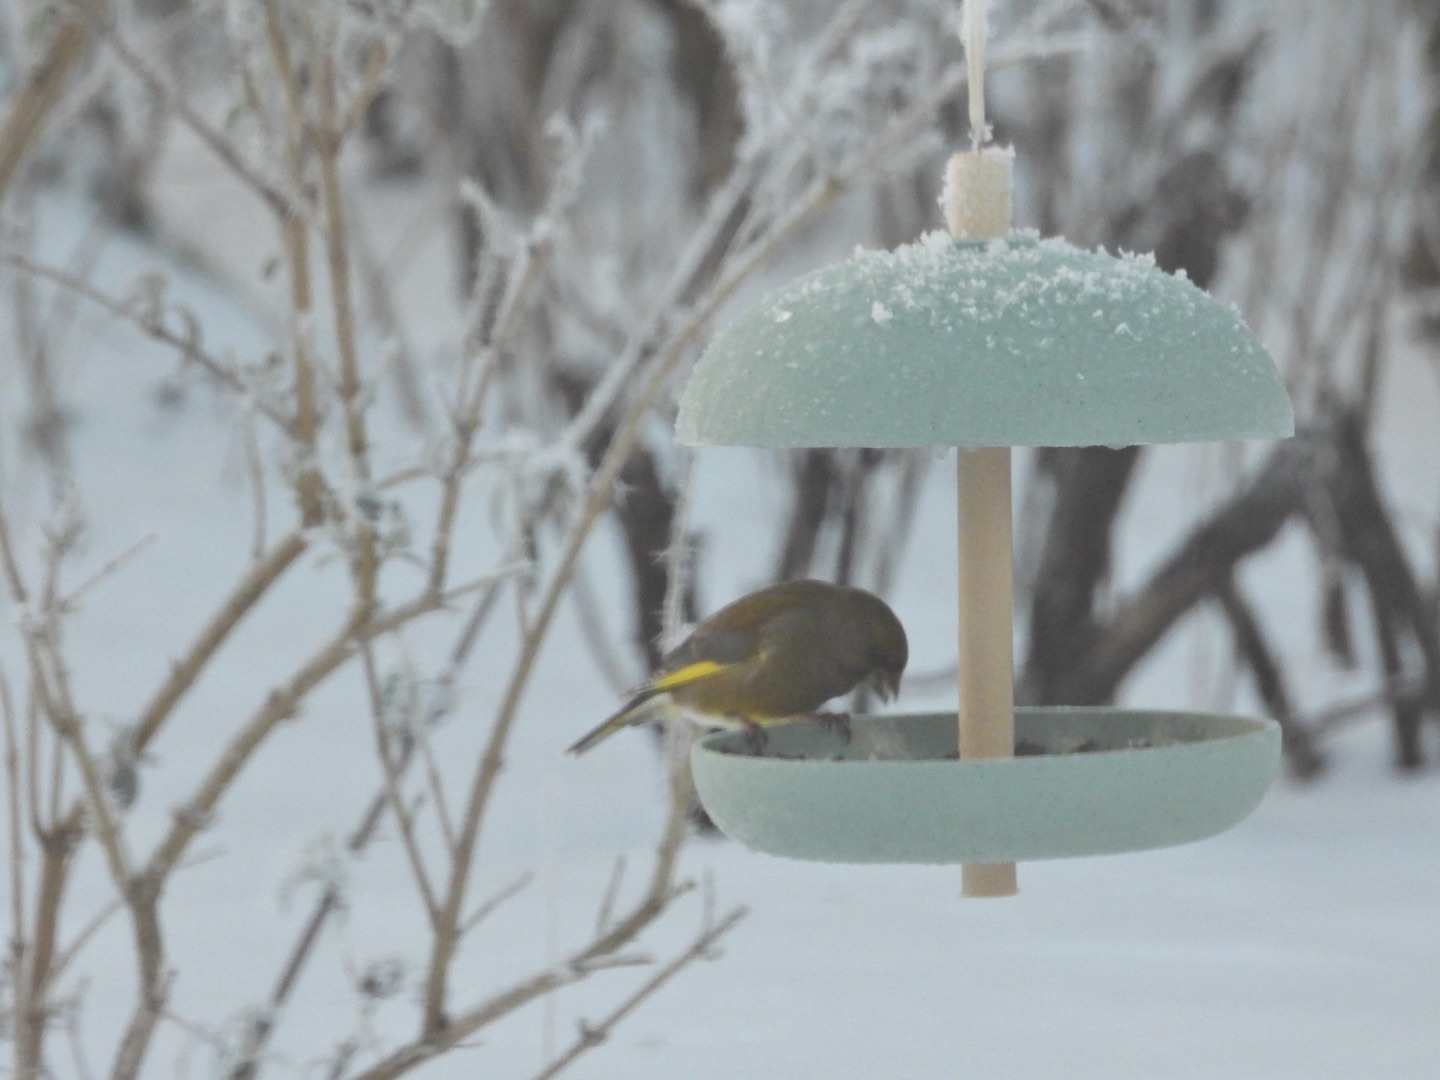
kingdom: Plantae
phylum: Tracheophyta
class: Liliopsida
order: Poales
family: Poaceae
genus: Chloris
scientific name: Chloris chloris
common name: Grønirisk
